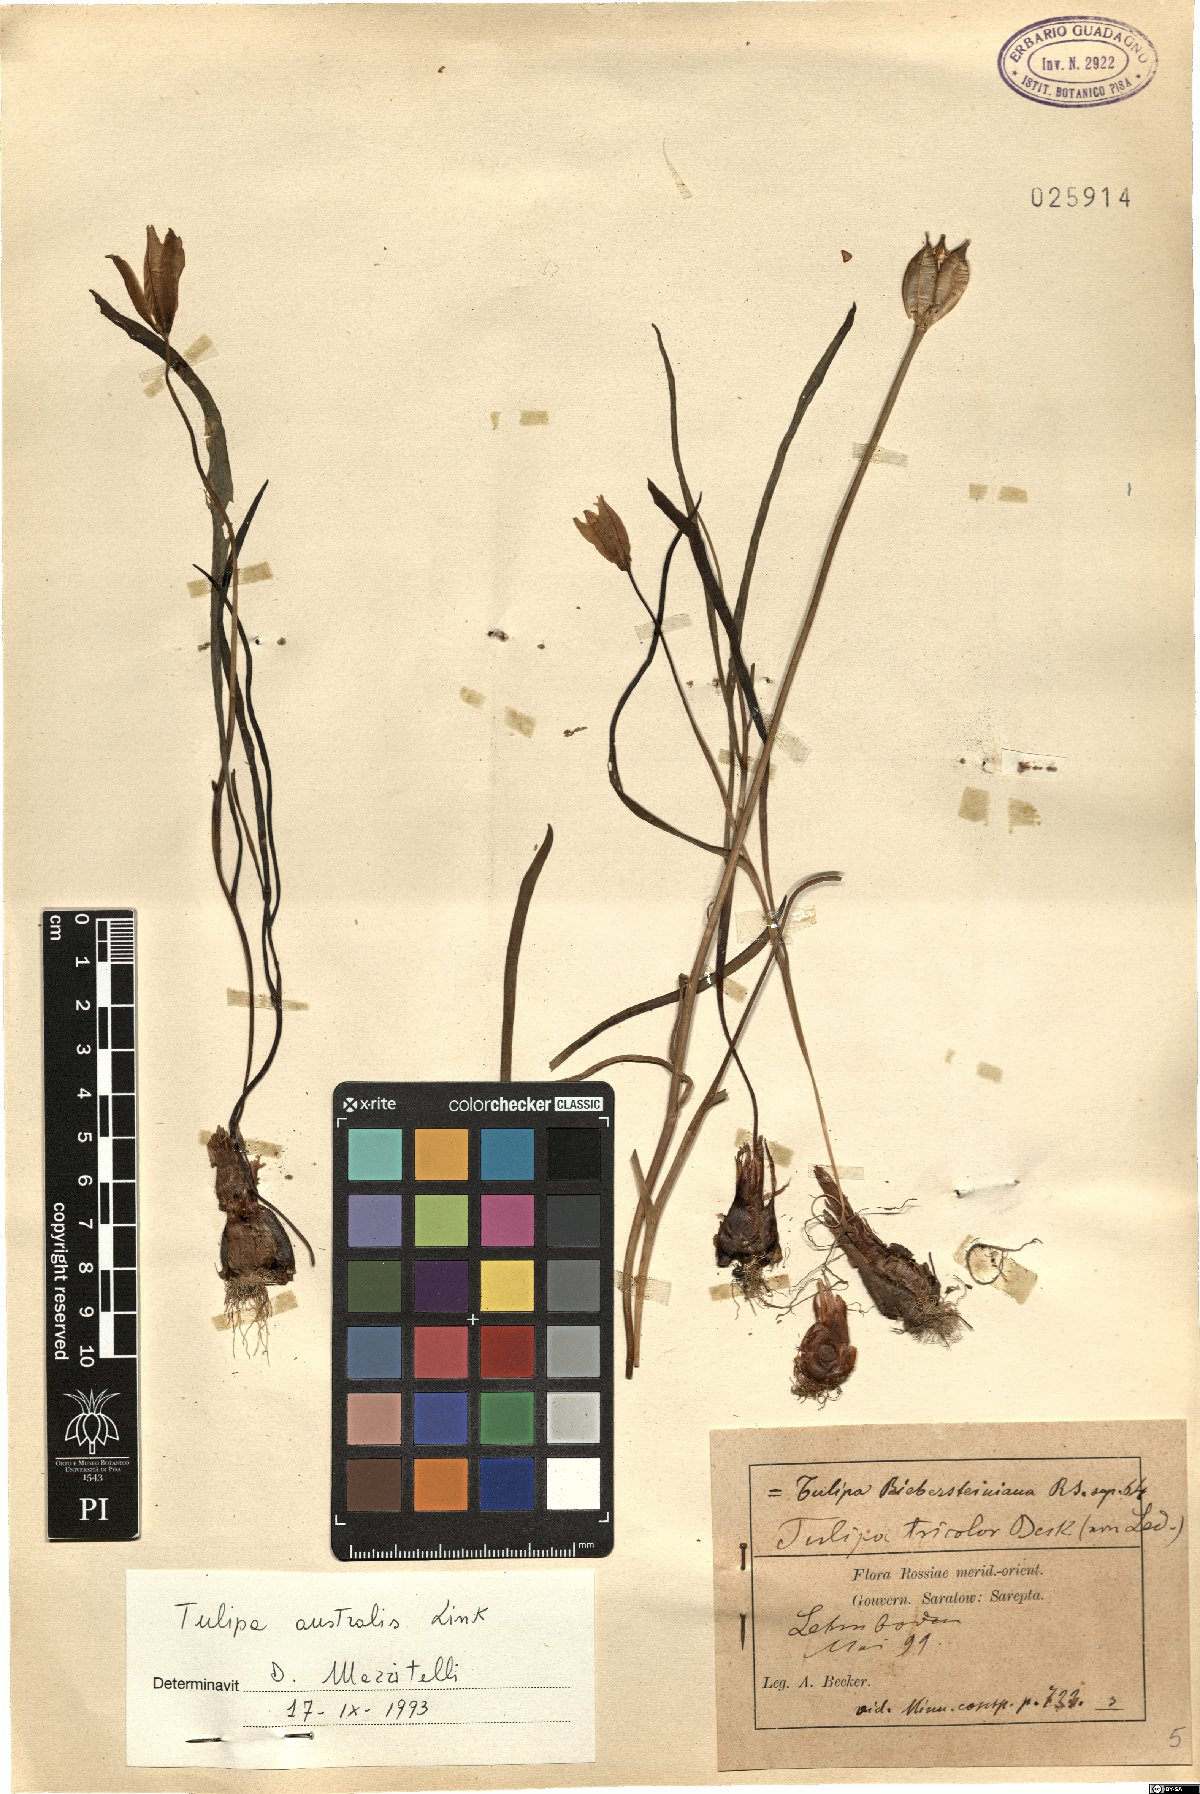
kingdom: Plantae
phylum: Tracheophyta
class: Liliopsida
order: Liliales
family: Liliaceae
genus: Tulipa
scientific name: Tulipa sylvestris
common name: Wild tulip
